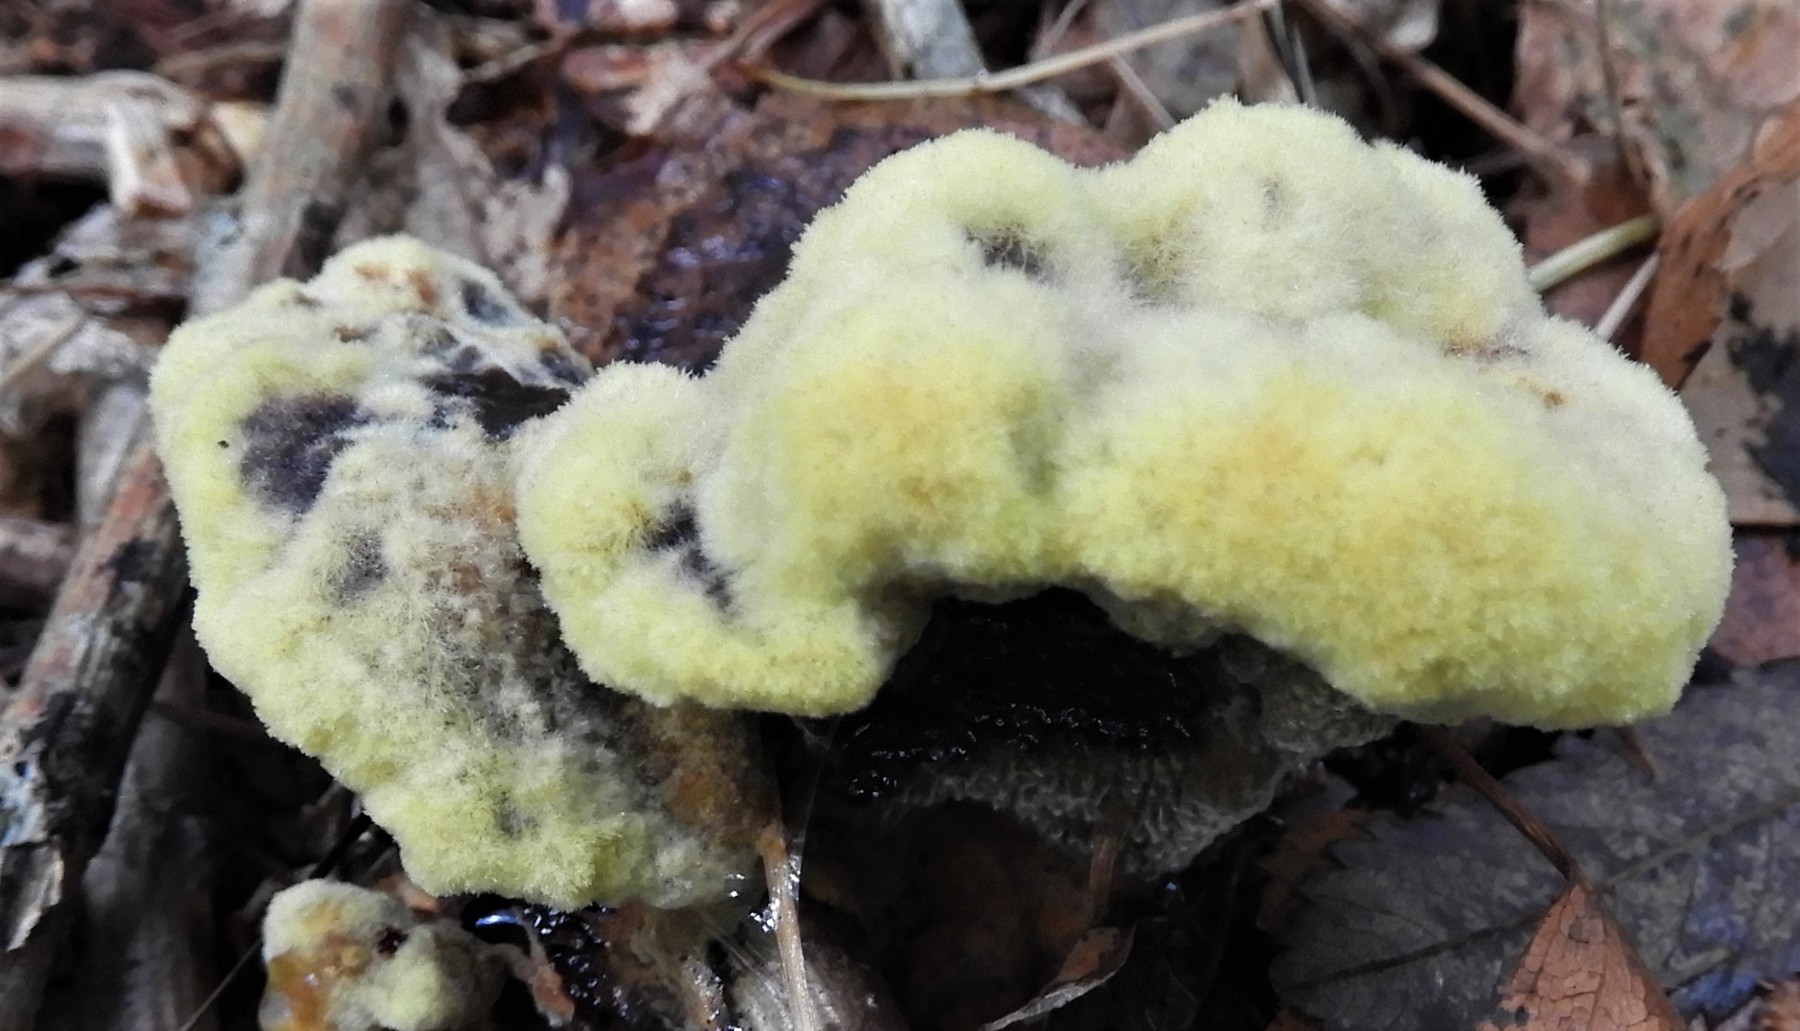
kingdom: Fungi
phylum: Basidiomycota
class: Agaricomycetes
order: Polyporales
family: Laetiporaceae
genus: Phaeolus
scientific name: Phaeolus schweinitzii
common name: brunporesvamp
